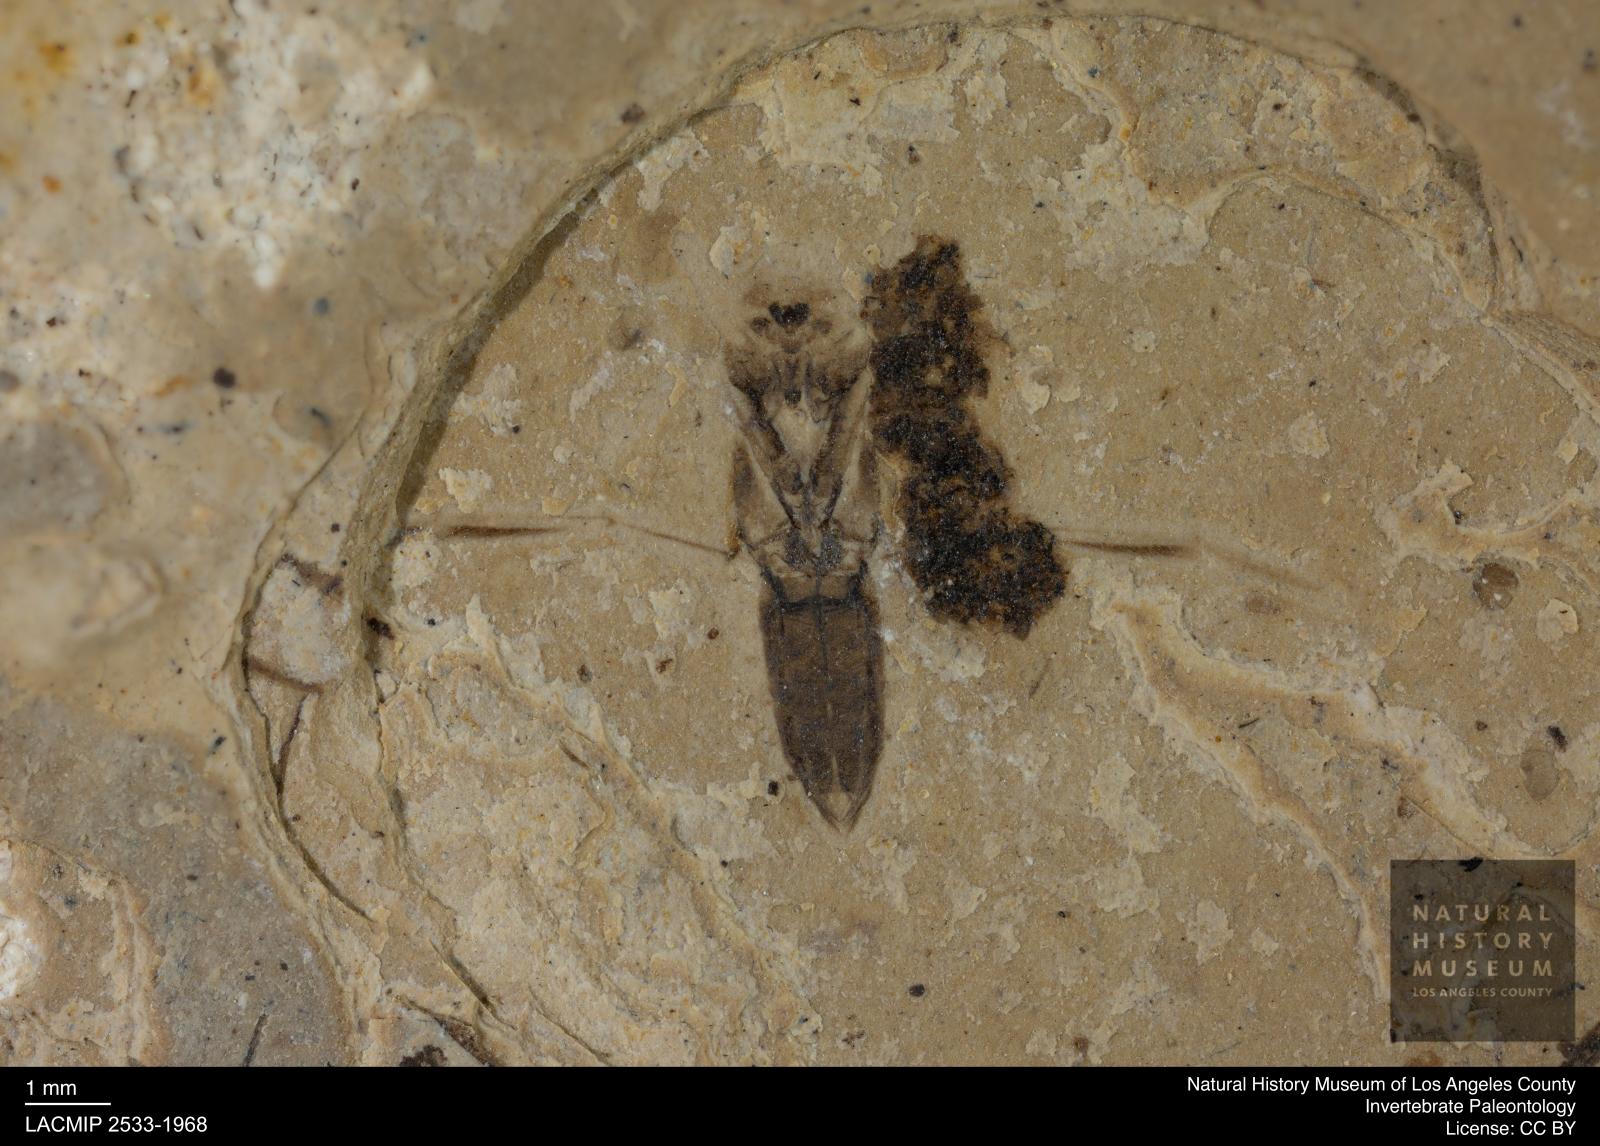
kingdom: Animalia
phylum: Arthropoda
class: Insecta
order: Hemiptera
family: Notonectidae
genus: Anisops
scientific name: Anisops Notonecta deichmuelleri
